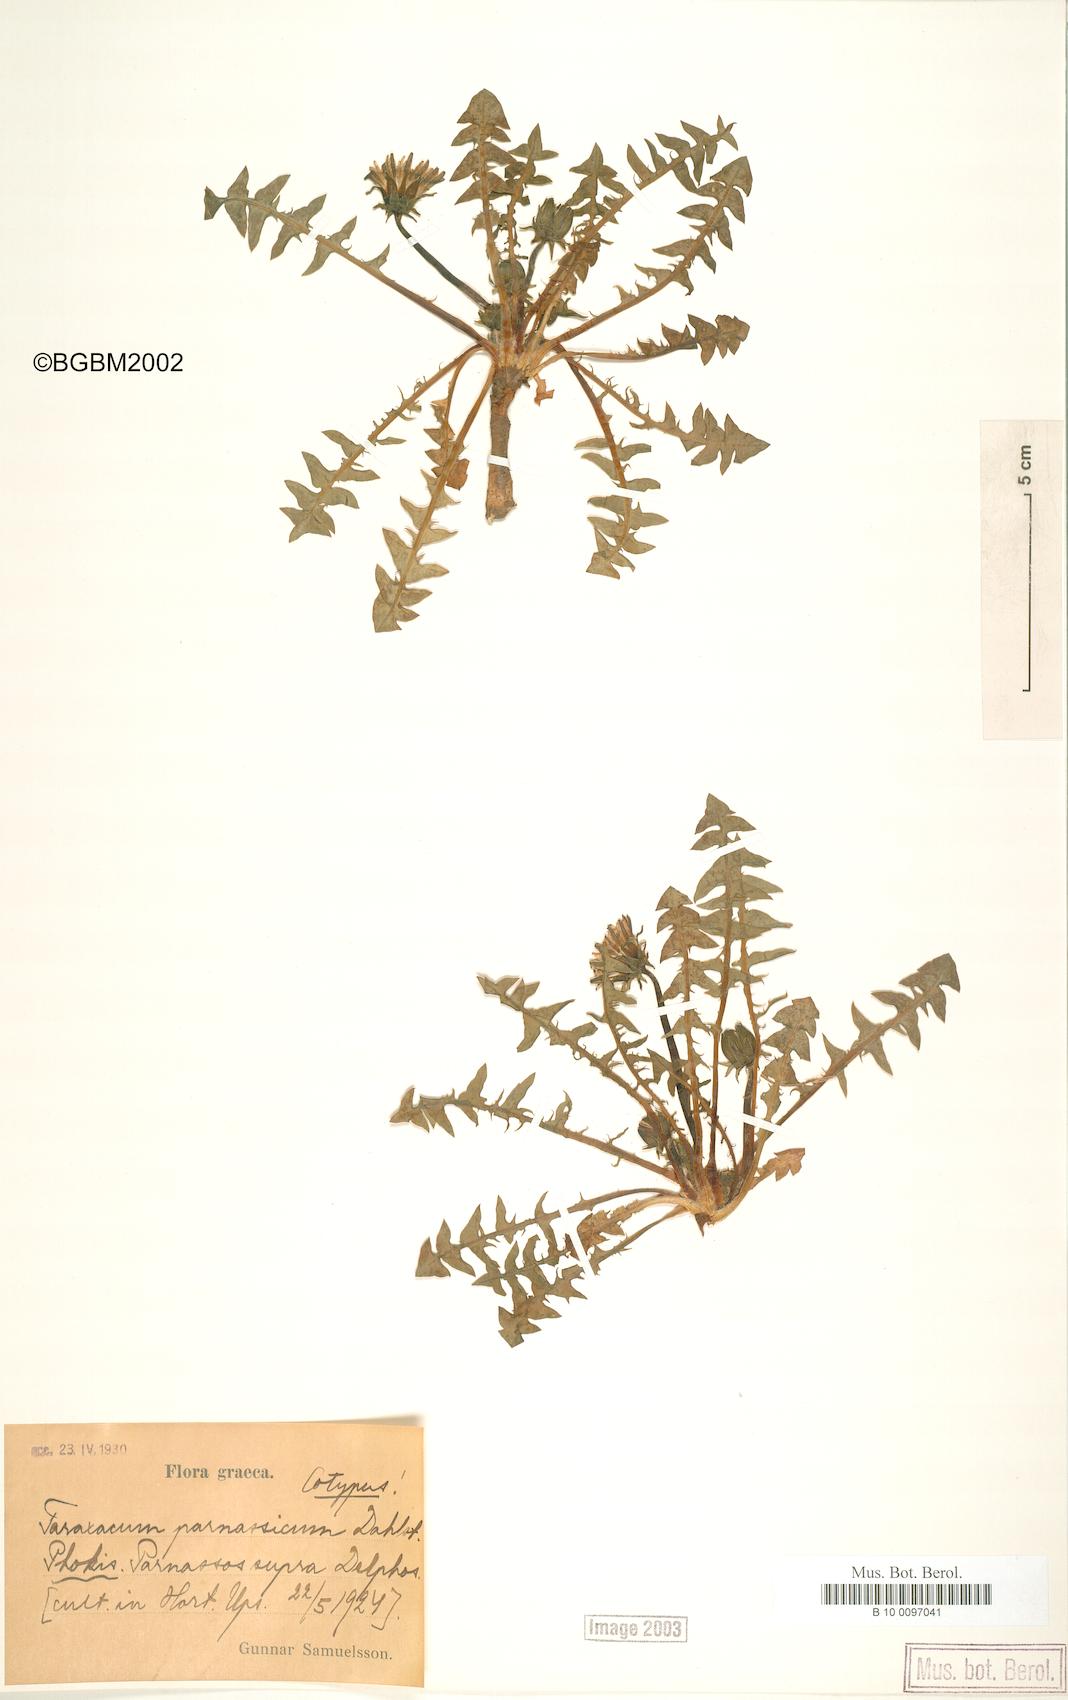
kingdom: Plantae
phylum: Tracheophyta
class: Magnoliopsida
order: Asterales
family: Asteraceae
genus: Taraxacum
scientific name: Taraxacum parnassicum
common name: Parnassus dandelion
